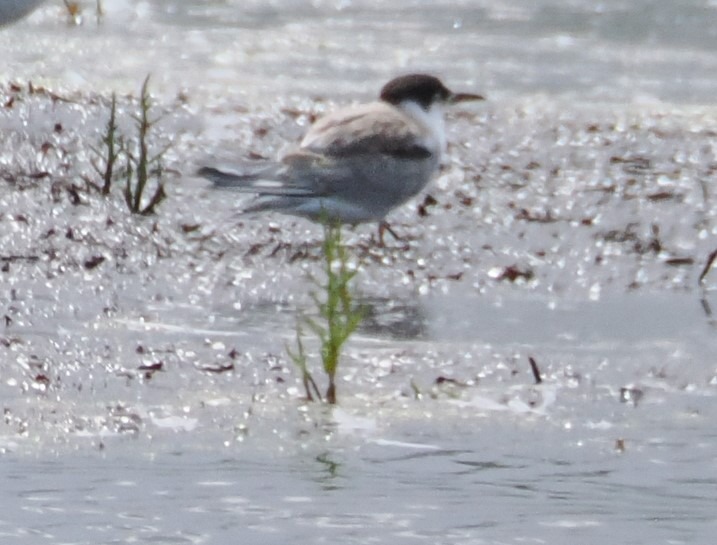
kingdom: Animalia
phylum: Chordata
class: Aves
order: Charadriiformes
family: Laridae
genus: Sterna
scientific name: Sterna hirundo
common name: Fjordterne
